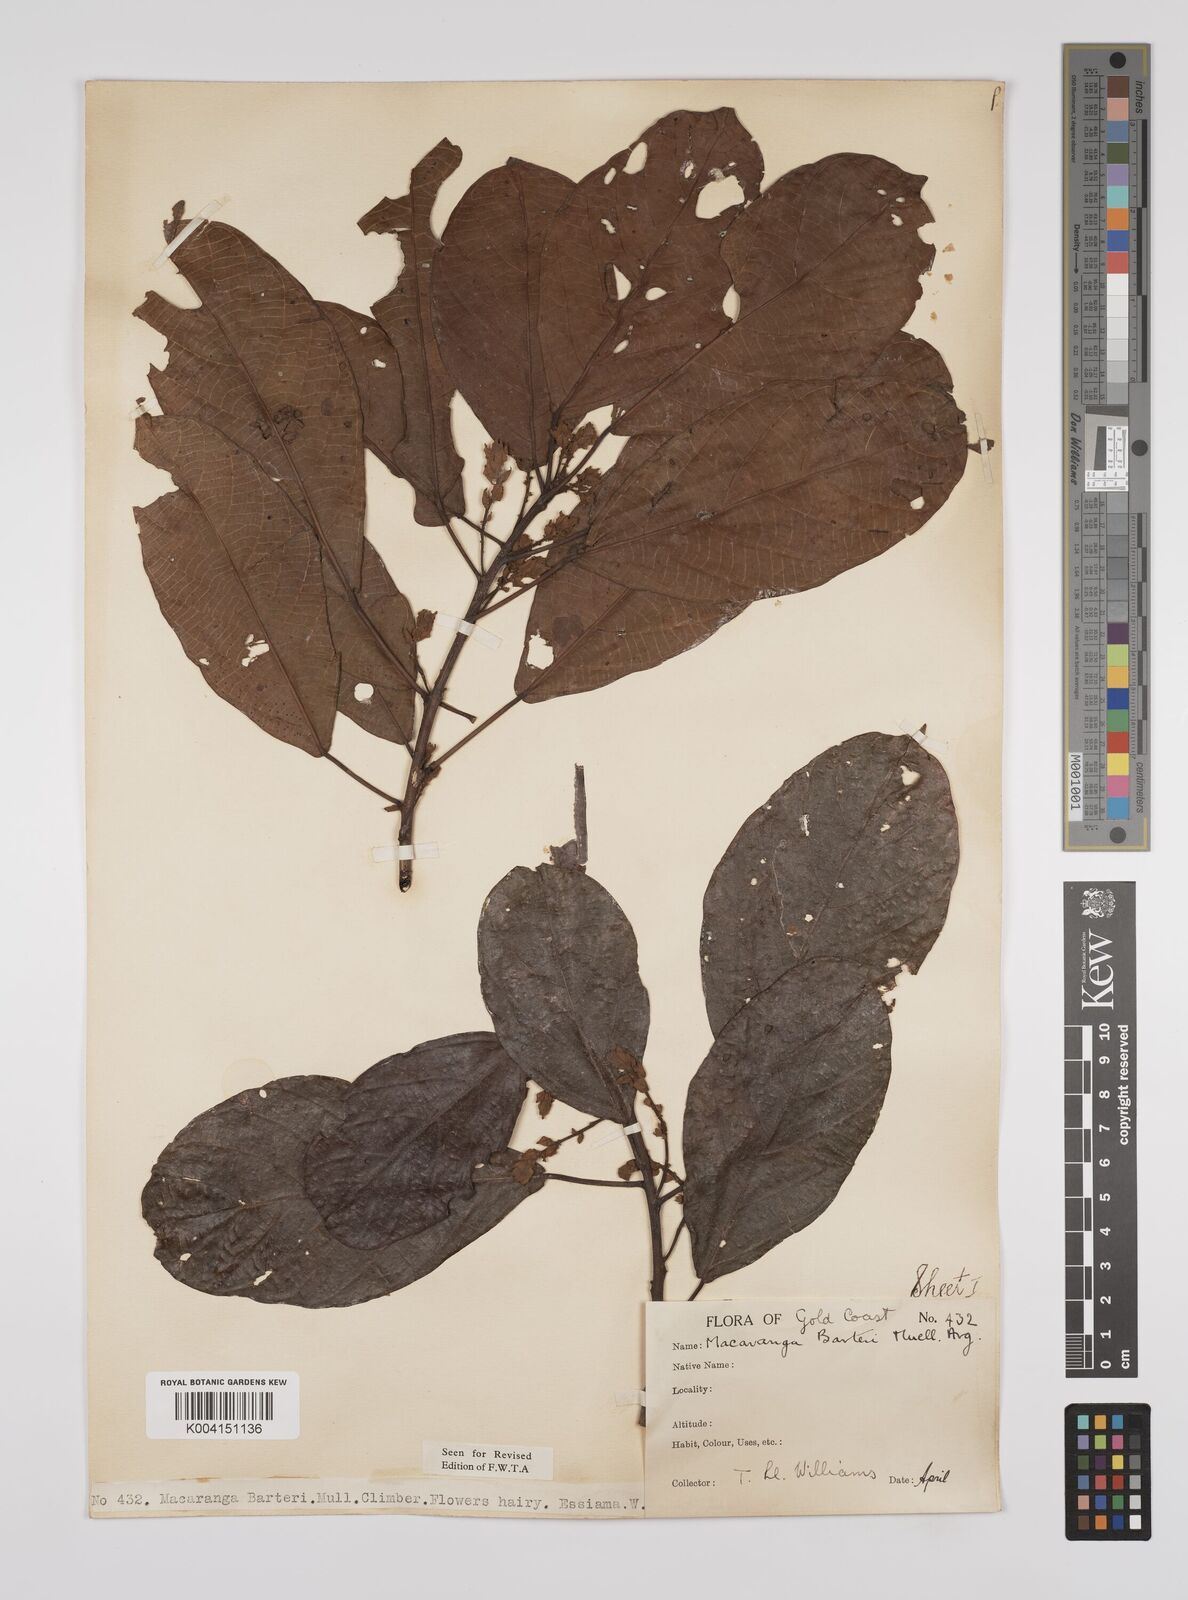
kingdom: Plantae
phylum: Tracheophyta
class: Magnoliopsida
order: Malpighiales
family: Euphorbiaceae
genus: Macaranga
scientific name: Macaranga barteri
